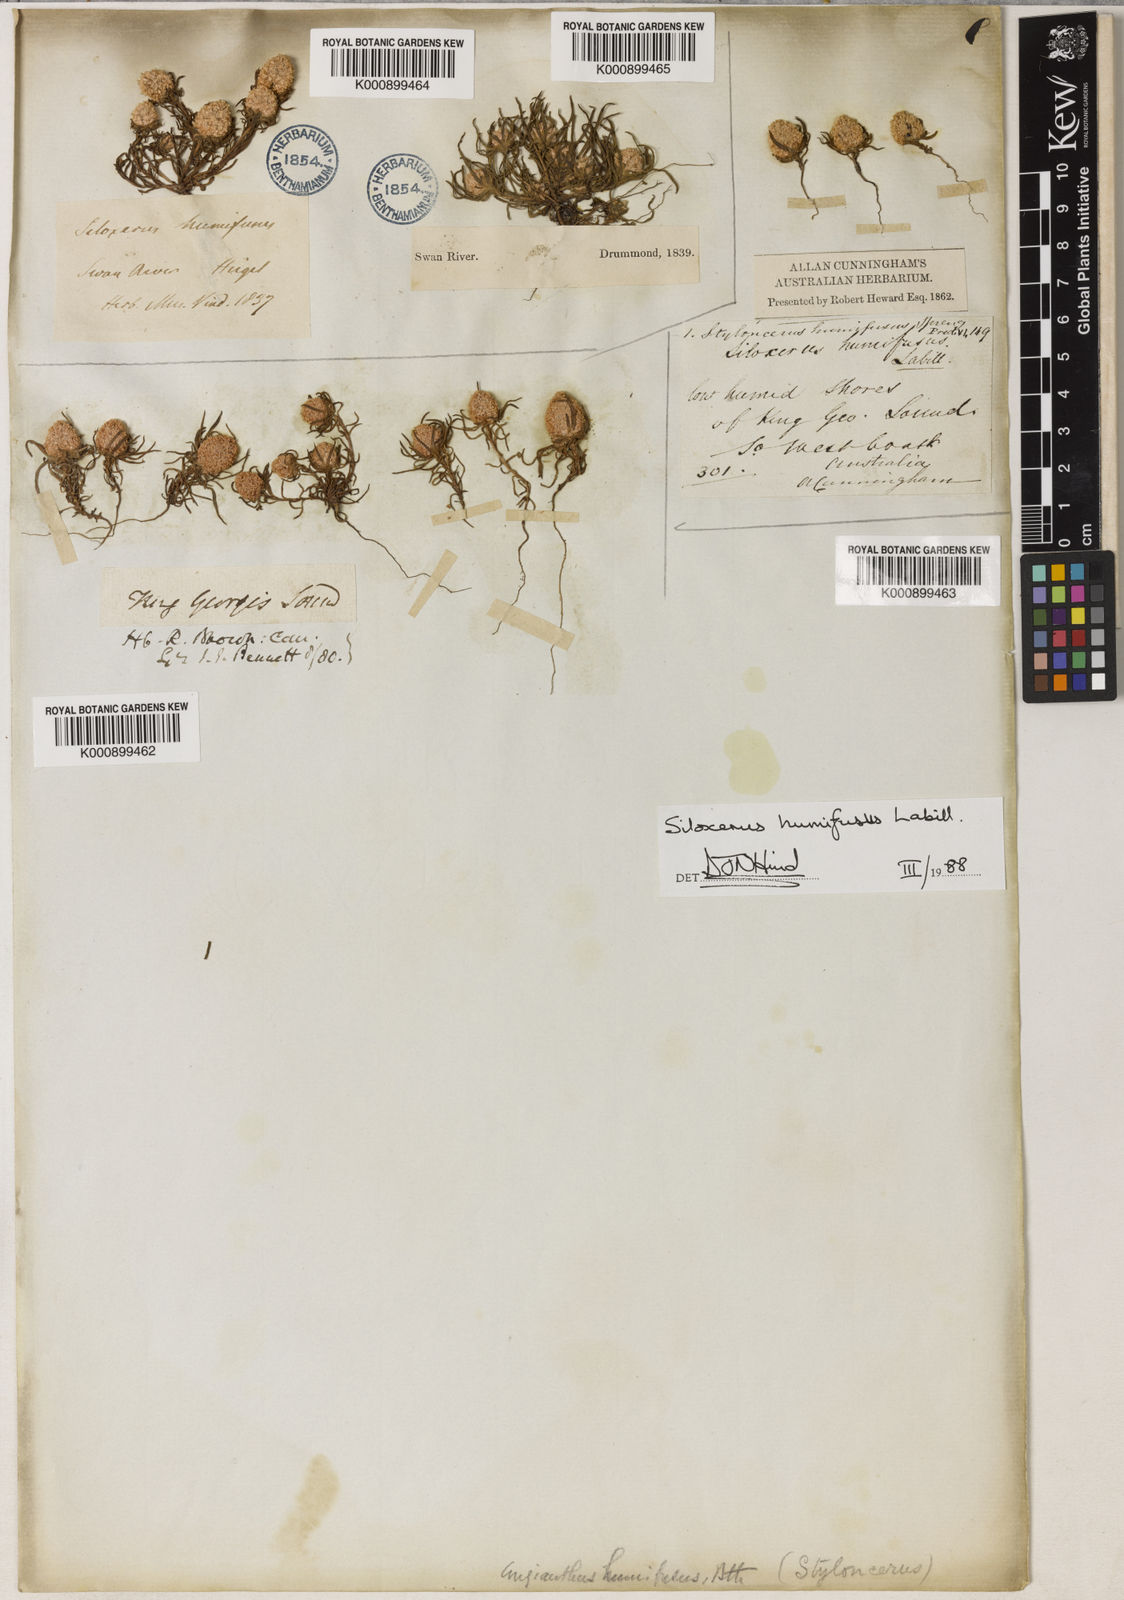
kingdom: Plantae
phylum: Tracheophyta
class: Magnoliopsida
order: Asterales
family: Asteraceae
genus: Siloxerus
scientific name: Siloxerus humifusus
